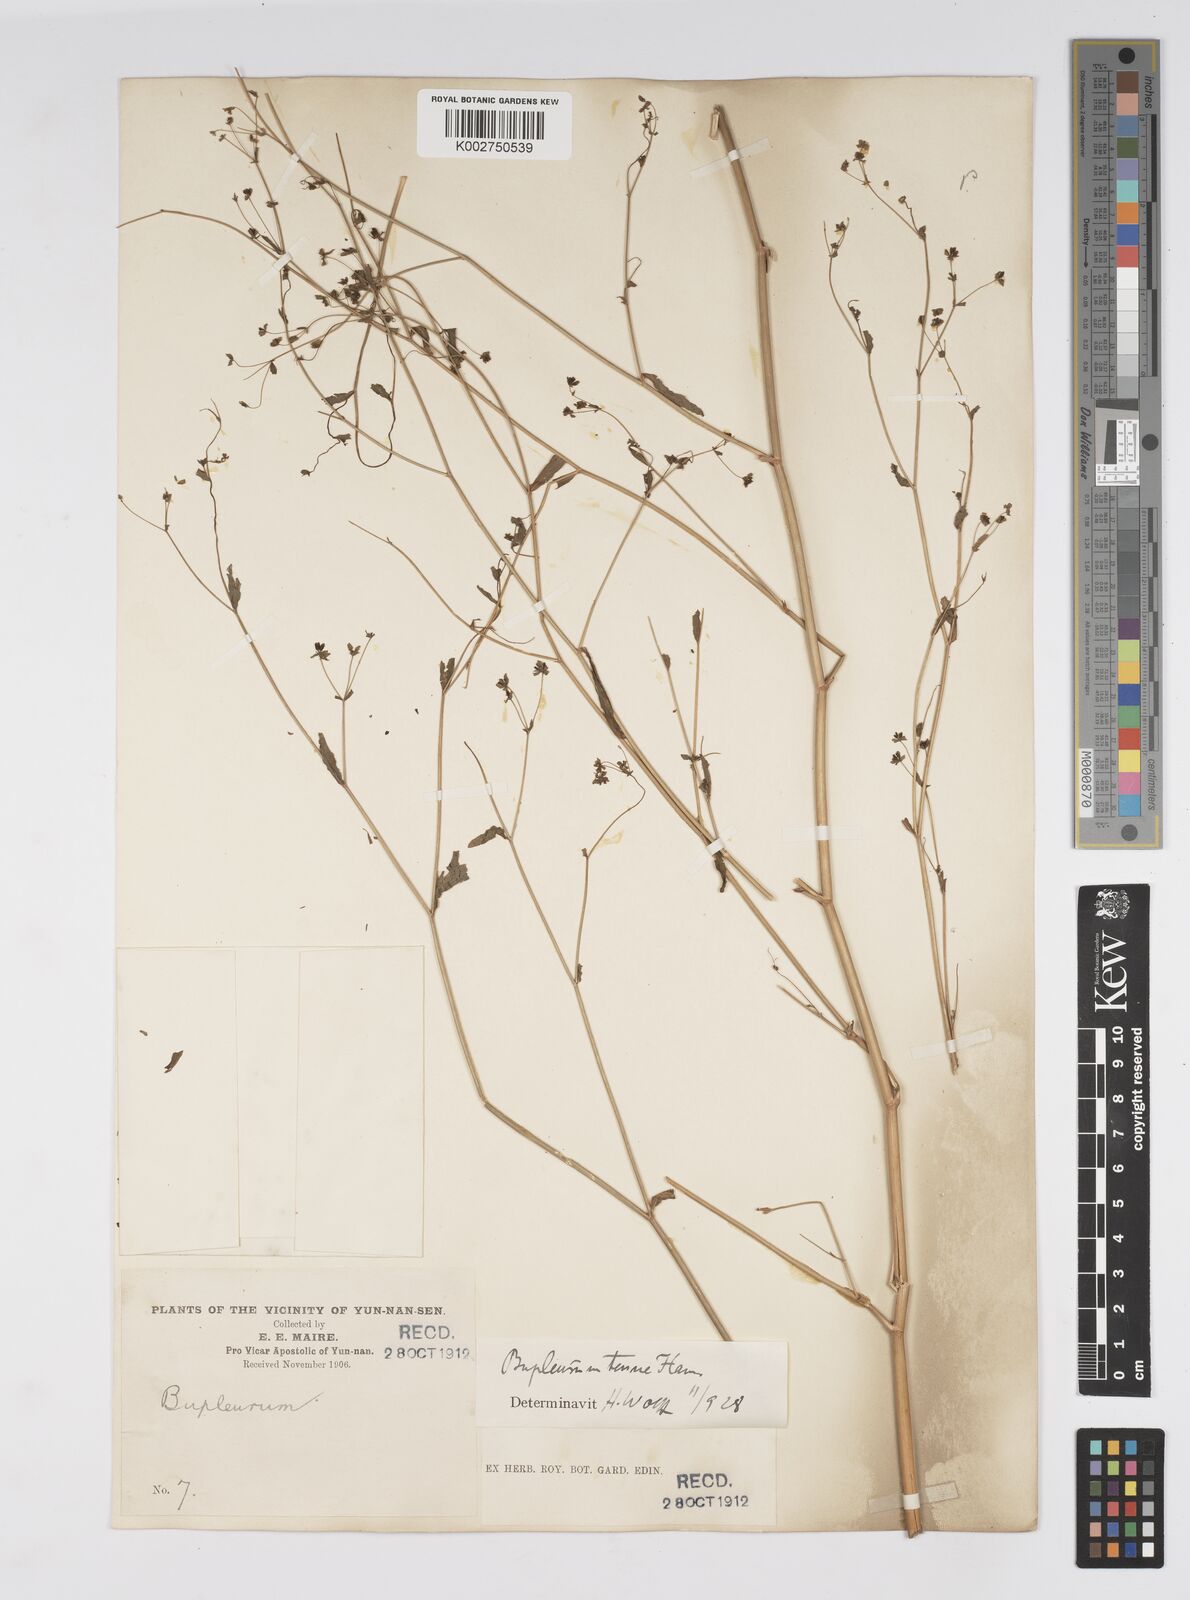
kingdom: Plantae
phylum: Tracheophyta
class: Magnoliopsida
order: Apiales
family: Apiaceae
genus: Bupleurum
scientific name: Bupleurum hamiltonii
